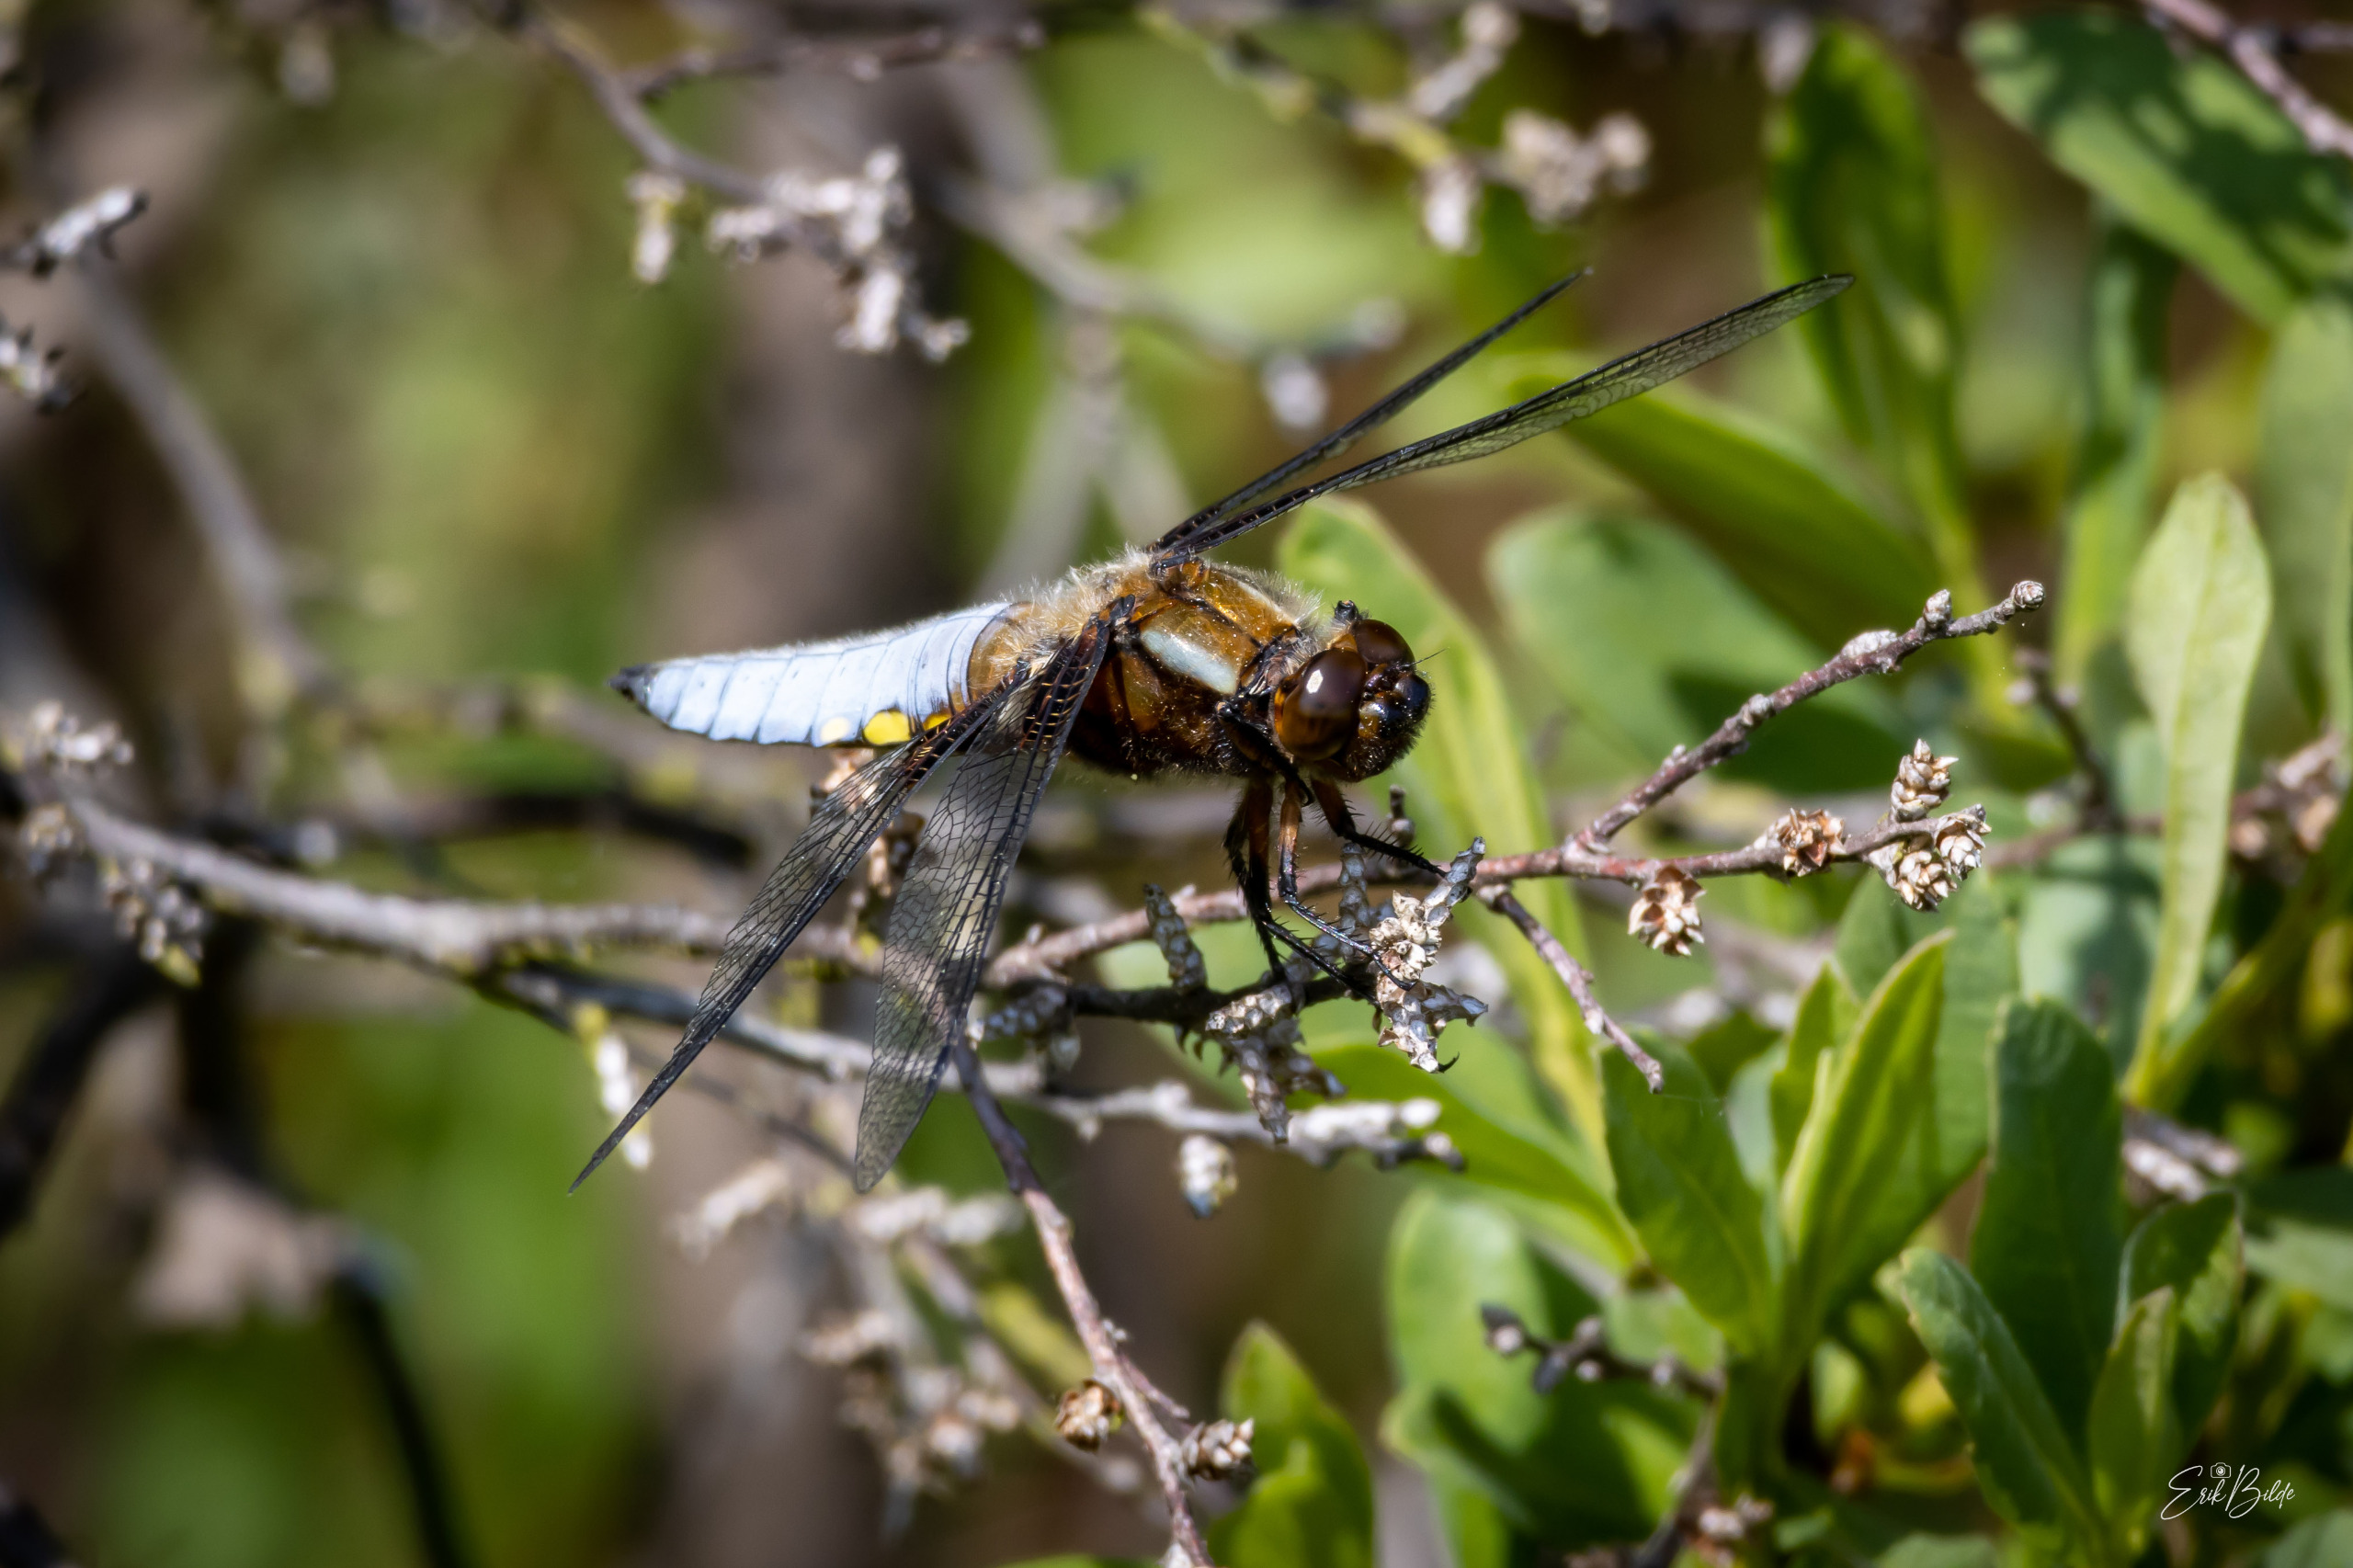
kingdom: Animalia
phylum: Arthropoda
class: Insecta
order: Odonata
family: Libellulidae
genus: Libellula
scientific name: Libellula depressa
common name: Blå libel
